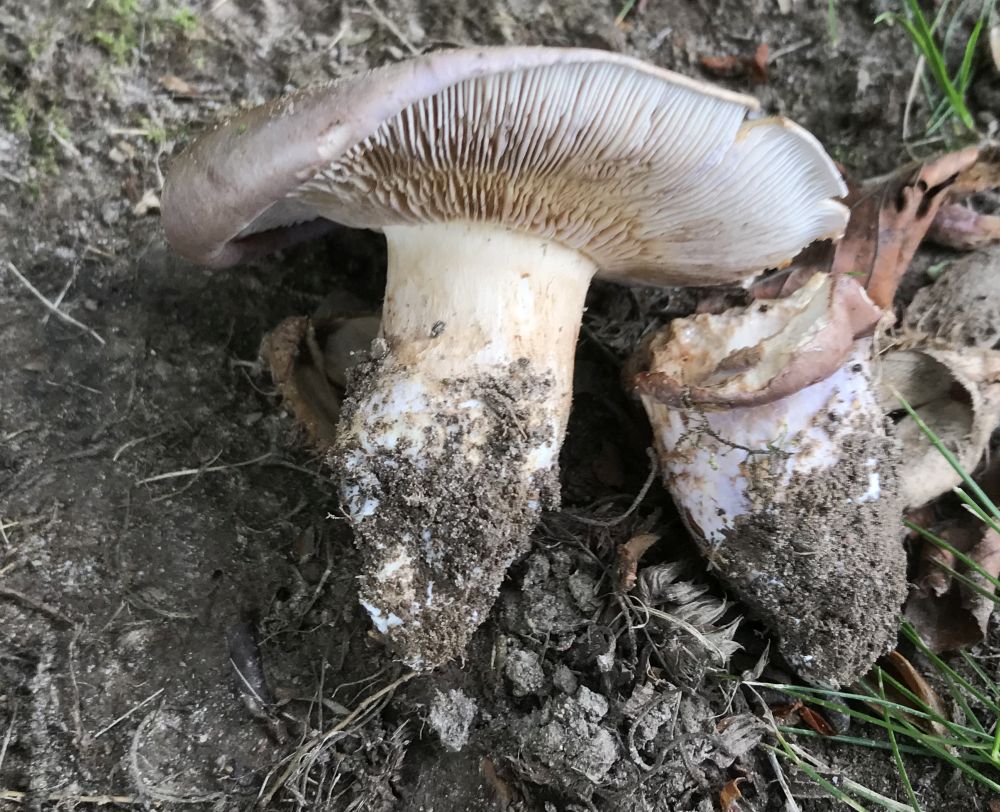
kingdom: Fungi
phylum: Basidiomycota
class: Agaricomycetes
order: Agaricales
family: Cortinariaceae
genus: Phlegmacium
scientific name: Phlegmacium balteatocumatile
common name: violettrådet slørhat
